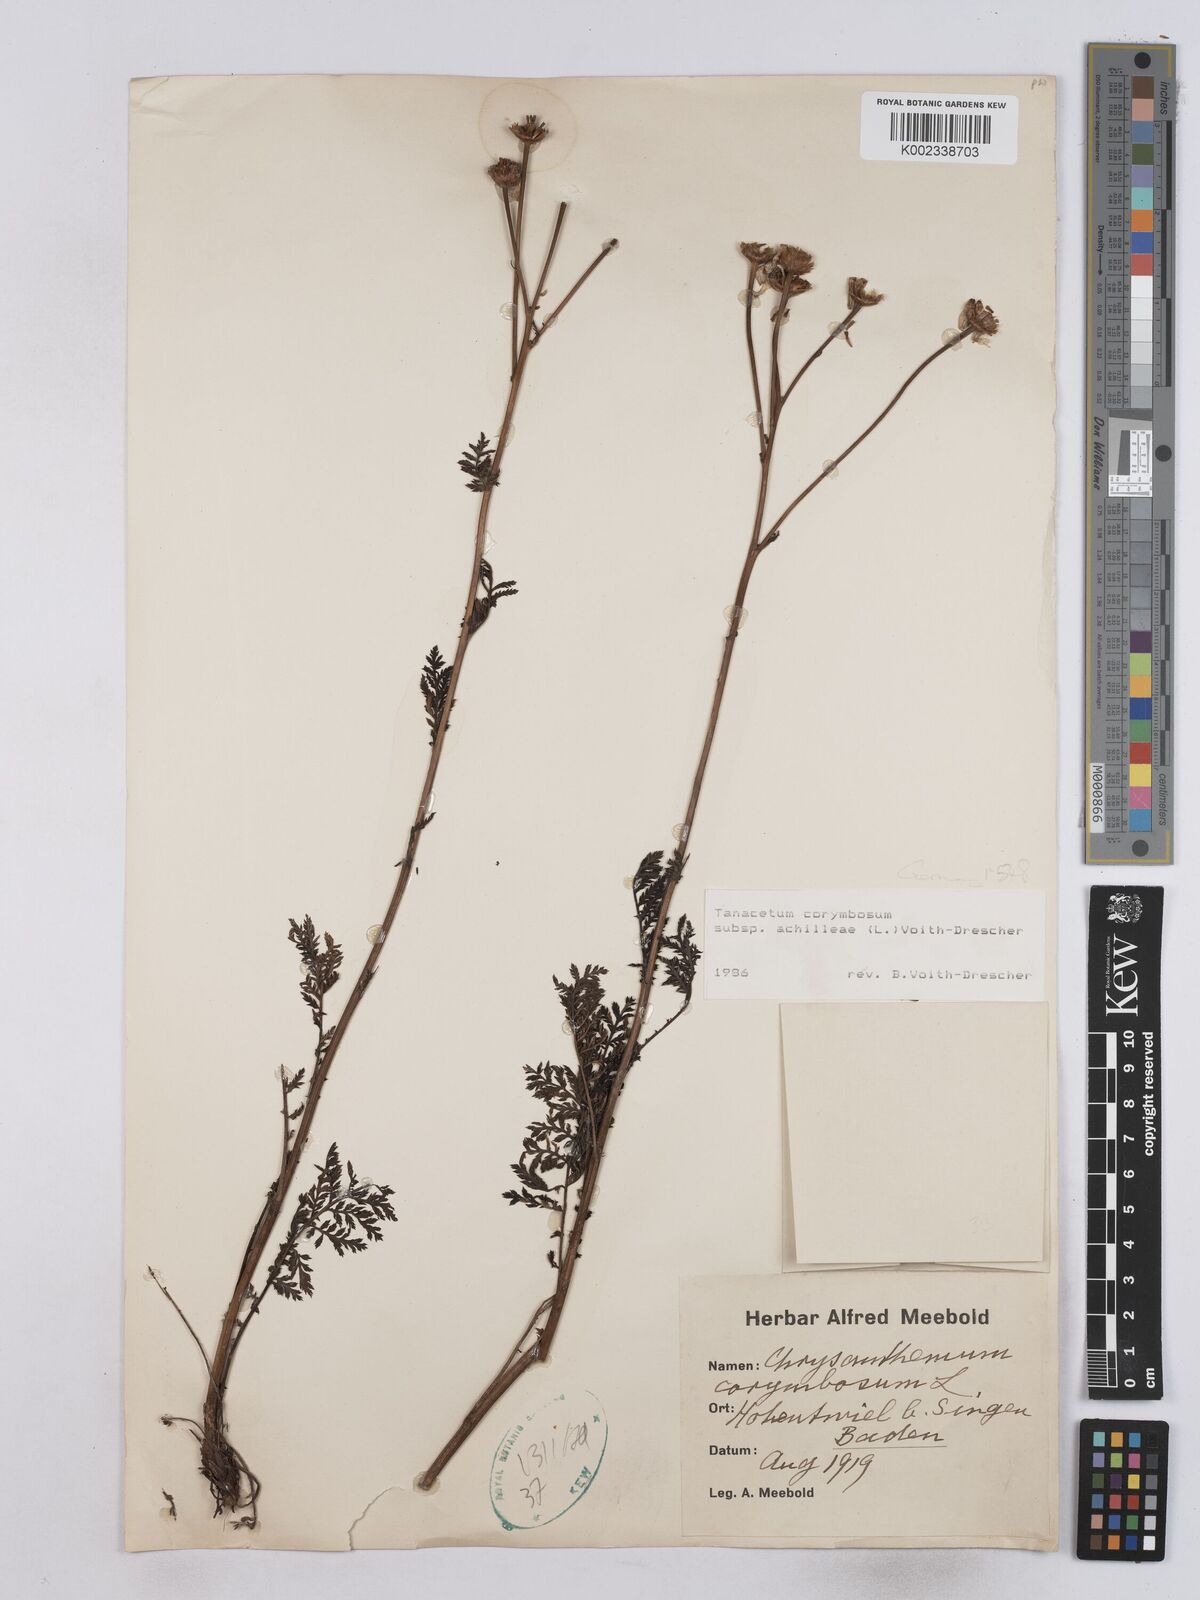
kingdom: Plantae
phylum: Tracheophyta
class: Magnoliopsida
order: Asterales
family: Asteraceae
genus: Tanacetum
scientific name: Tanacetum corymbosum
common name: Scentless feverfew
